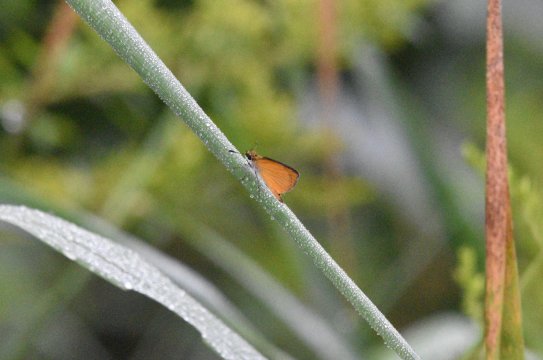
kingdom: Animalia
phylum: Arthropoda
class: Insecta
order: Lepidoptera
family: Hesperiidae
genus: Ancyloxypha
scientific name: Ancyloxypha numitor
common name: Least Skipper
